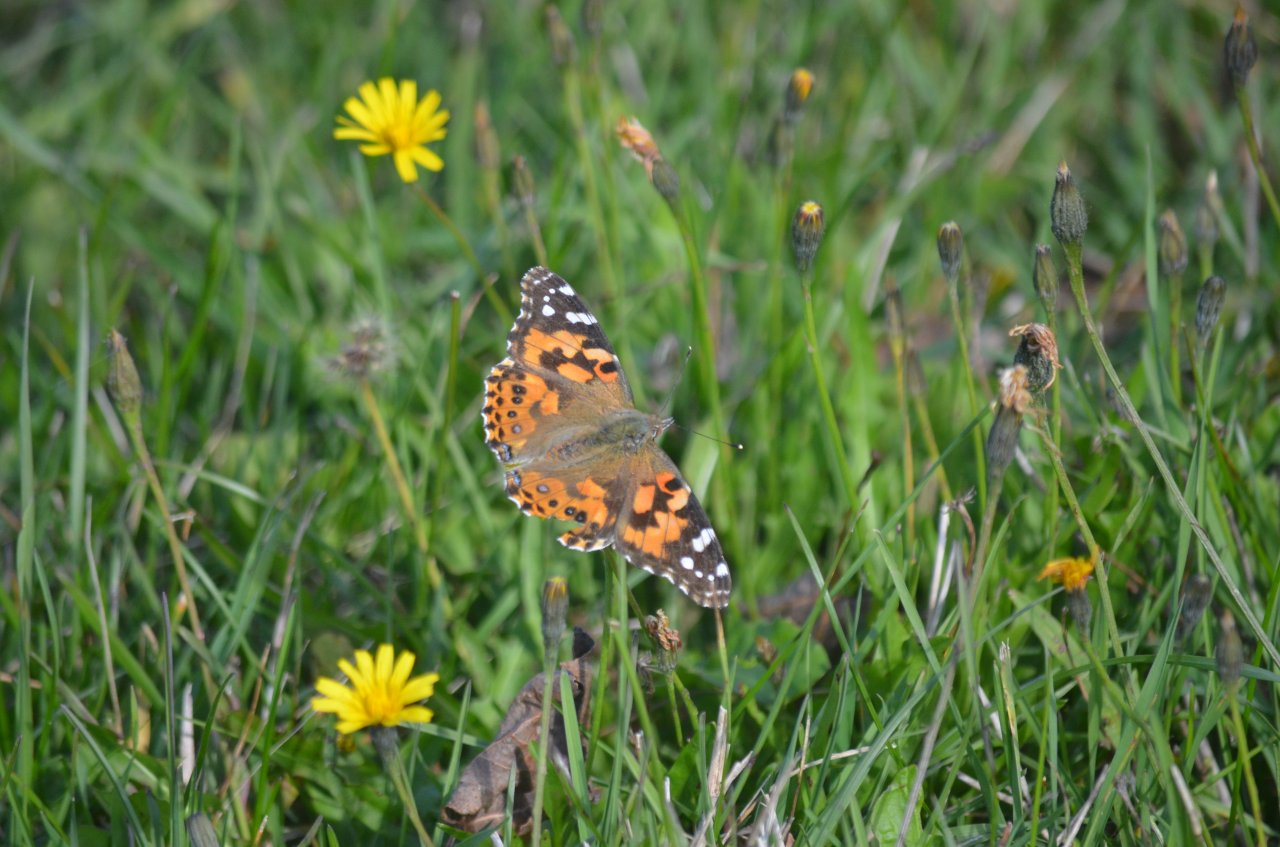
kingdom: Animalia
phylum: Arthropoda
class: Insecta
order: Lepidoptera
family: Nymphalidae
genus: Vanessa
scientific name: Vanessa cardui
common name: Painted Lady
